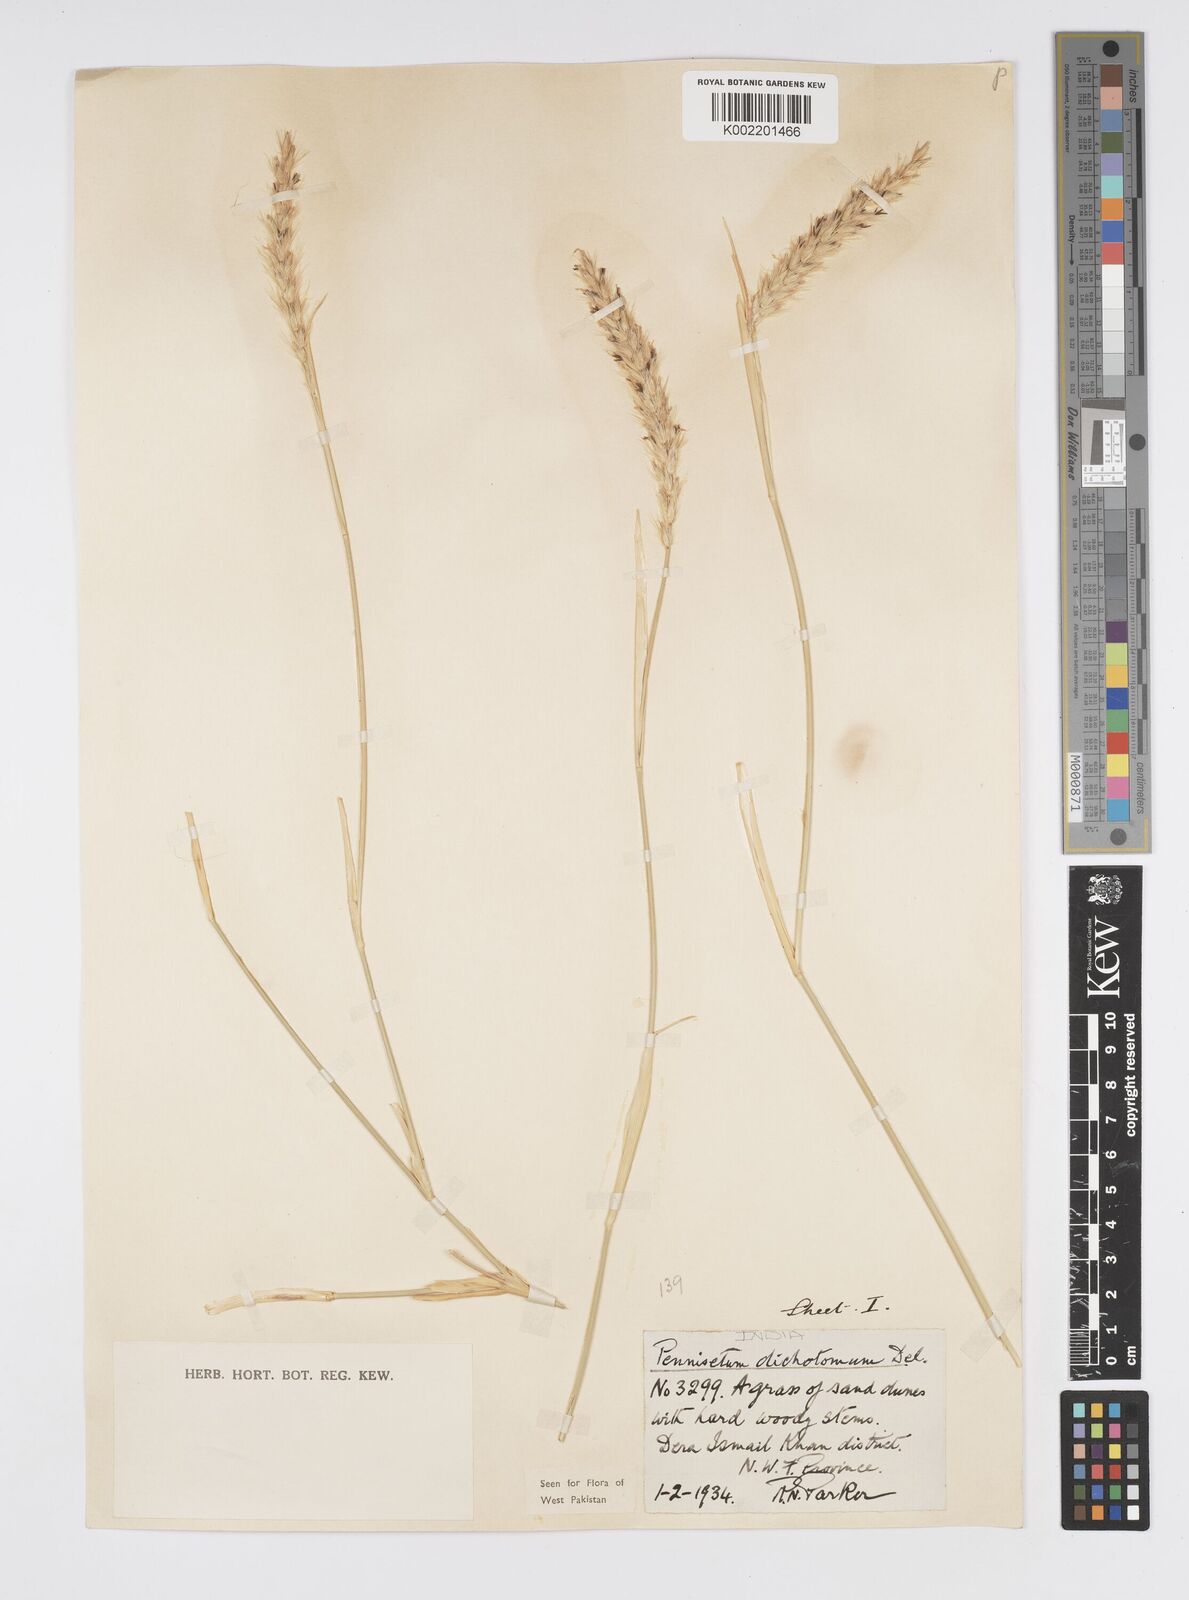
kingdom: Plantae
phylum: Tracheophyta
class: Liliopsida
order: Poales
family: Poaceae
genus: Cenchrus
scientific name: Cenchrus divisus
